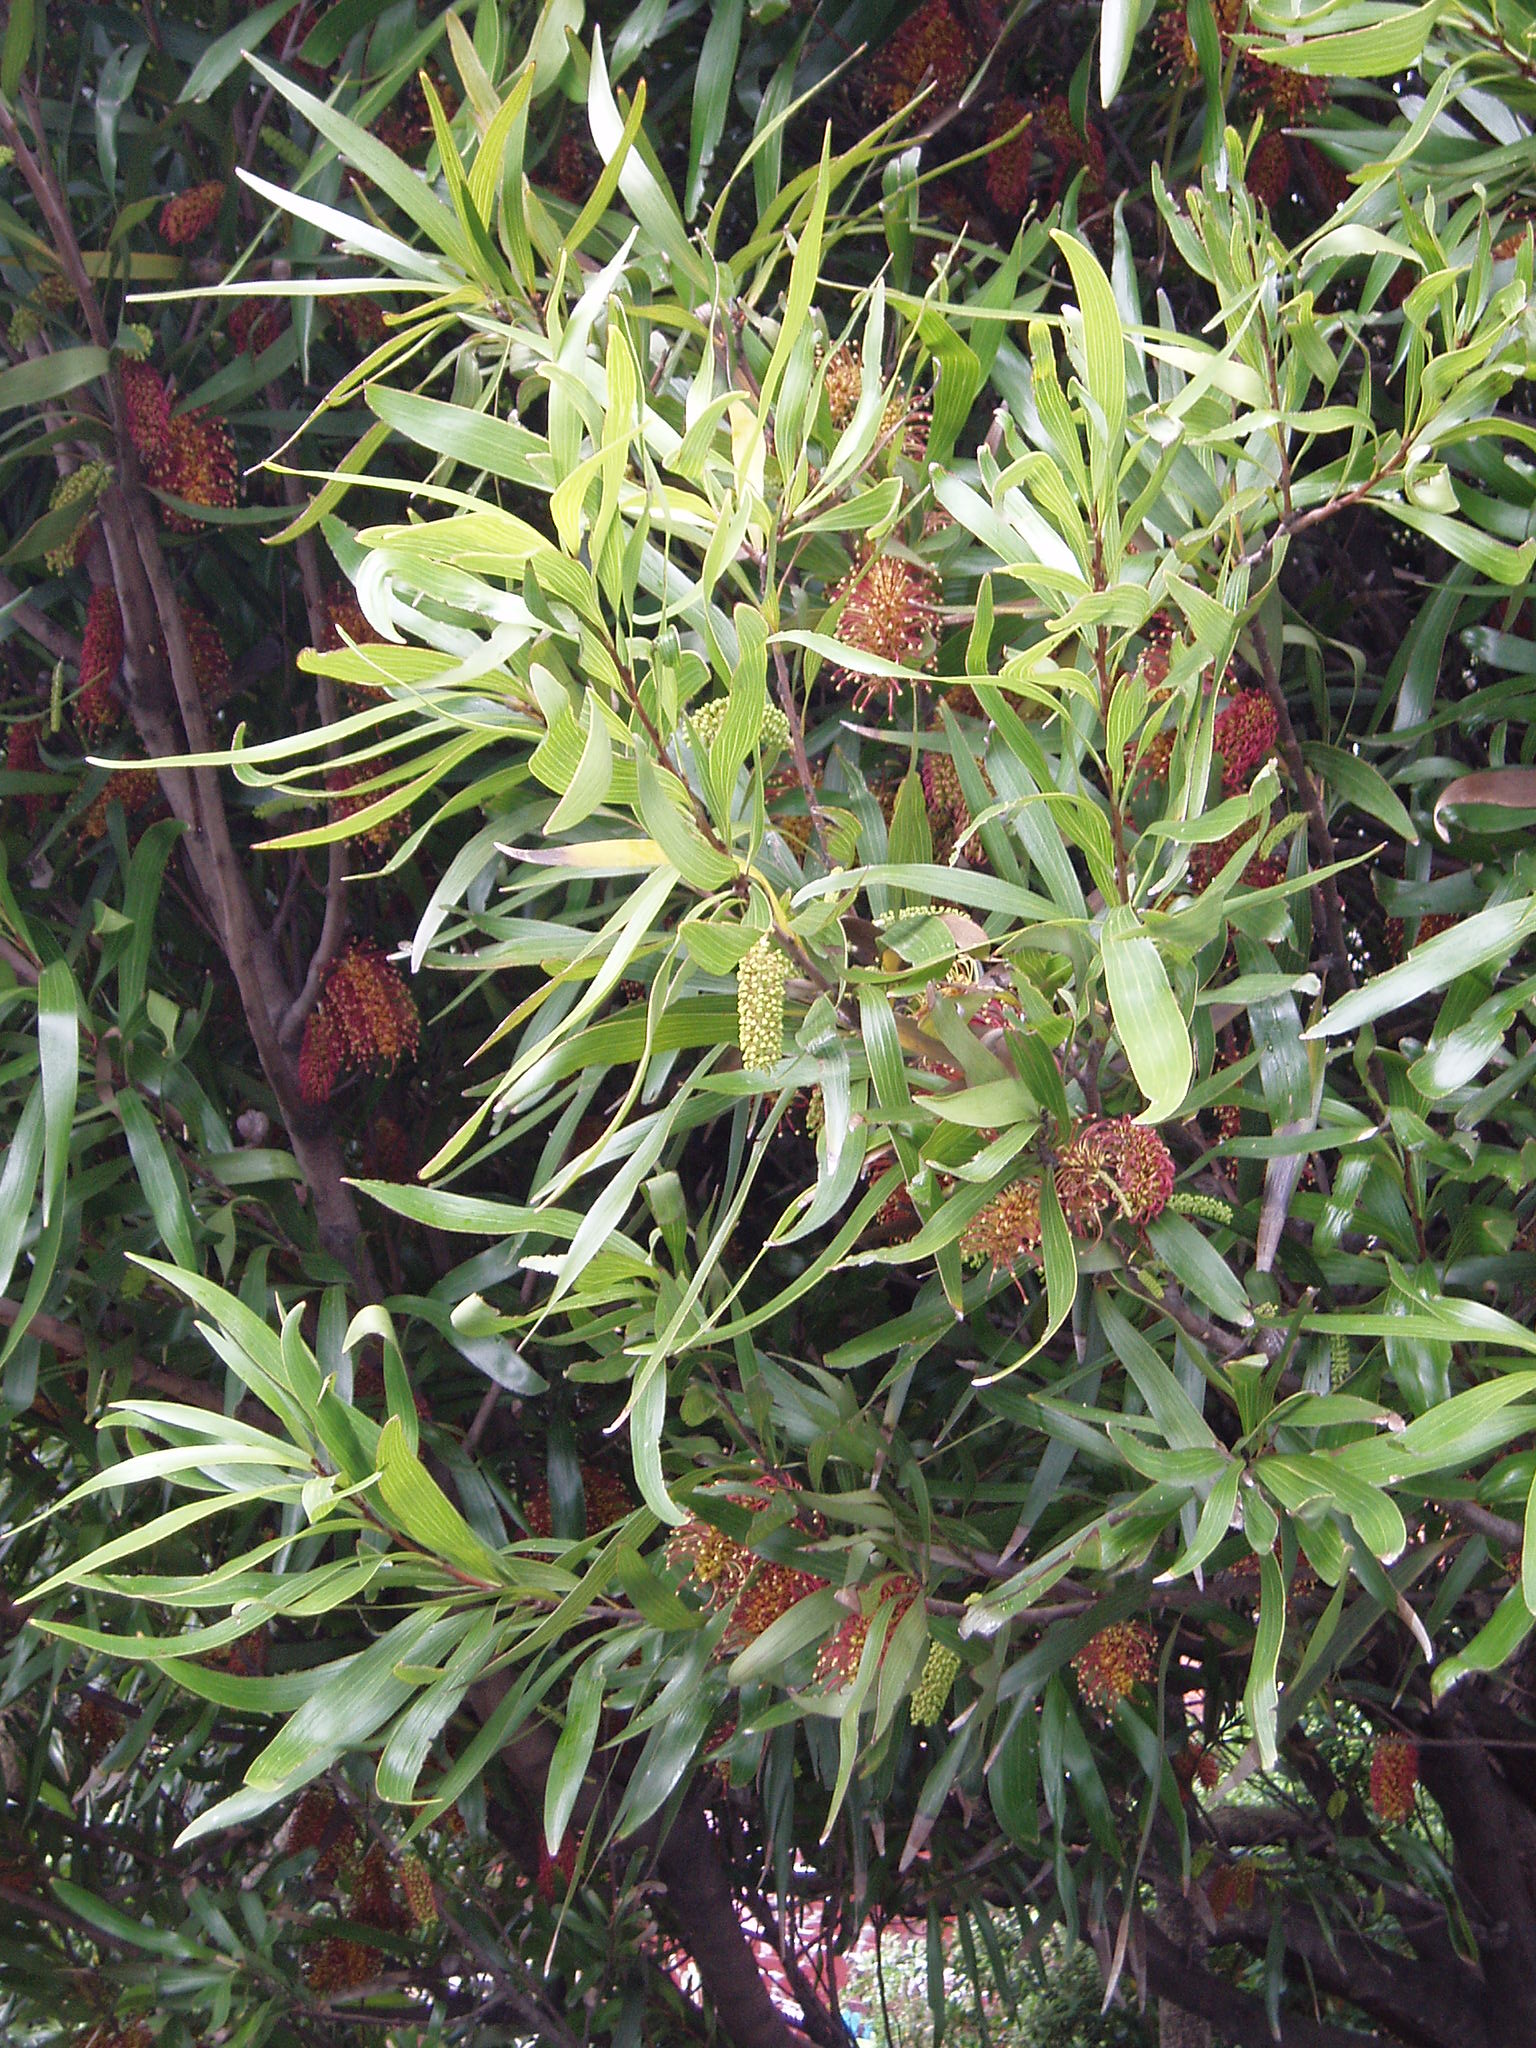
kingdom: Plantae
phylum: Tracheophyta
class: Magnoliopsida
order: Proteales
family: Proteaceae
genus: Hakea
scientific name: Hakea archaeoides
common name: Big nellie hakea
